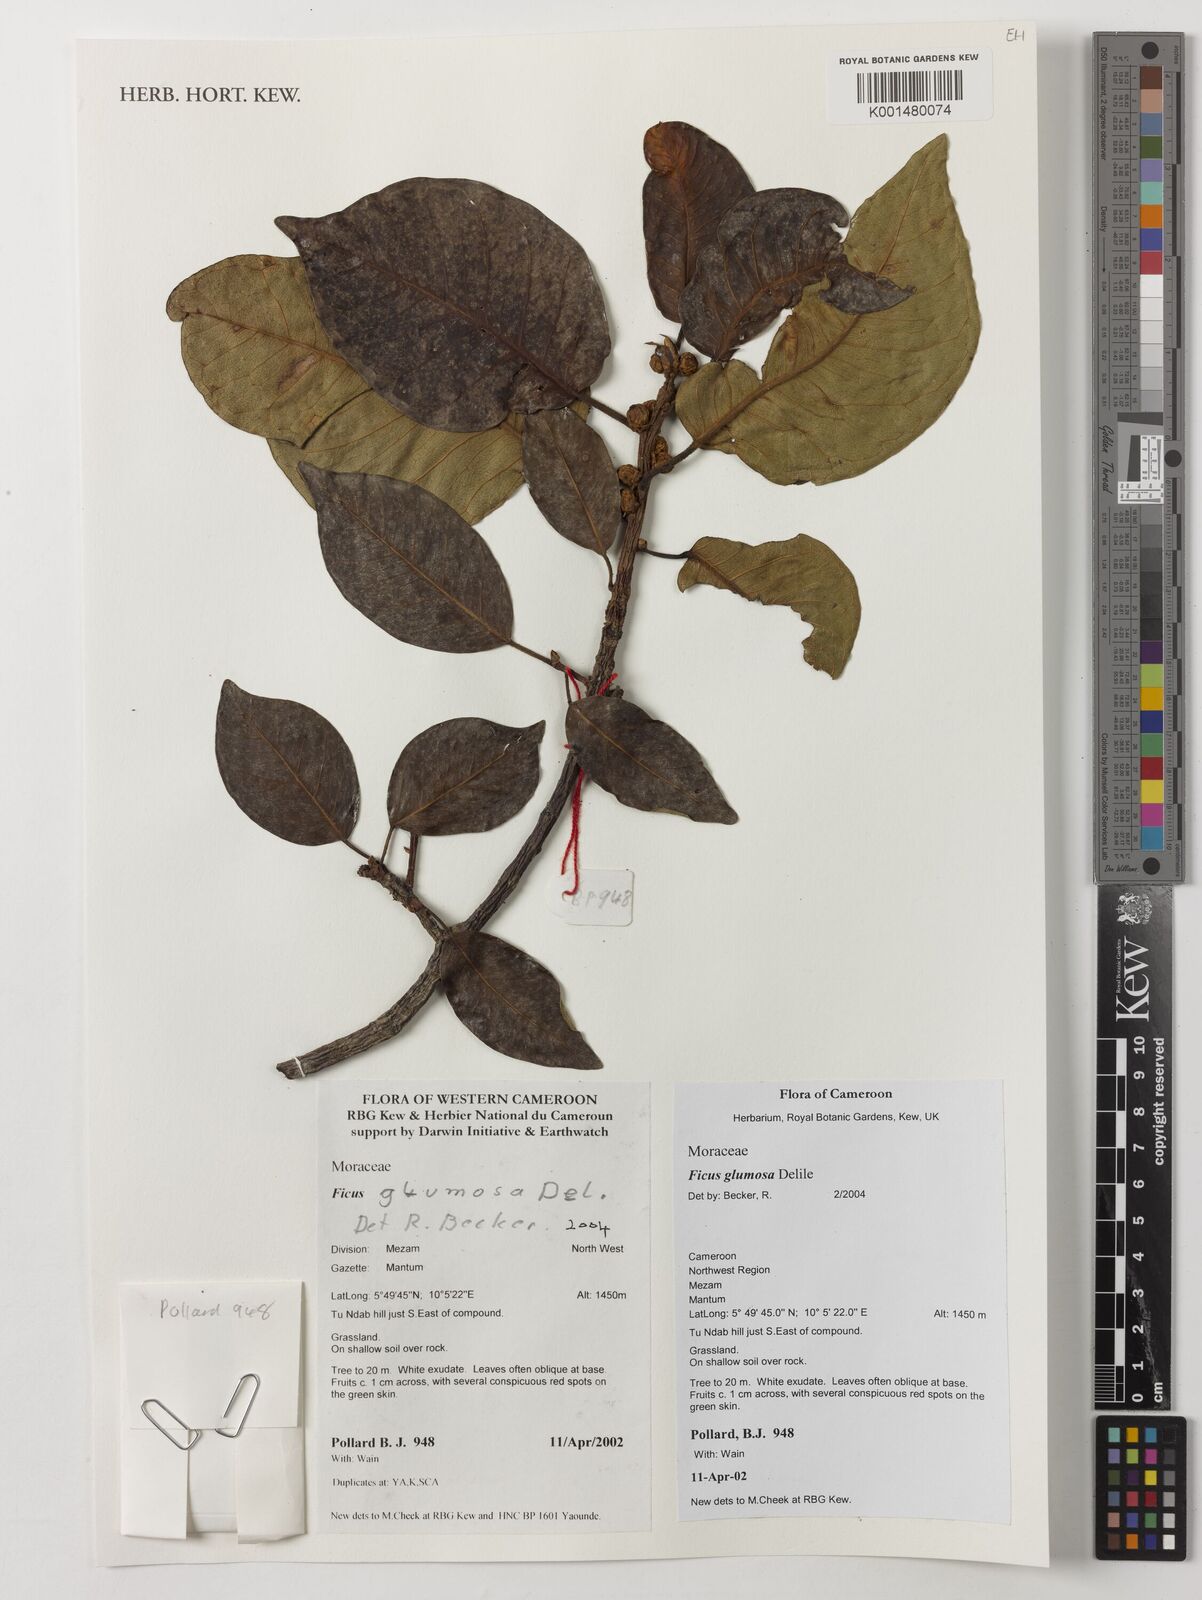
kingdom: Plantae
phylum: Tracheophyta
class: Magnoliopsida
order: Rosales
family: Moraceae
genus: Ficus
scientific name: Ficus glumosa
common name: Hairy rock fig
